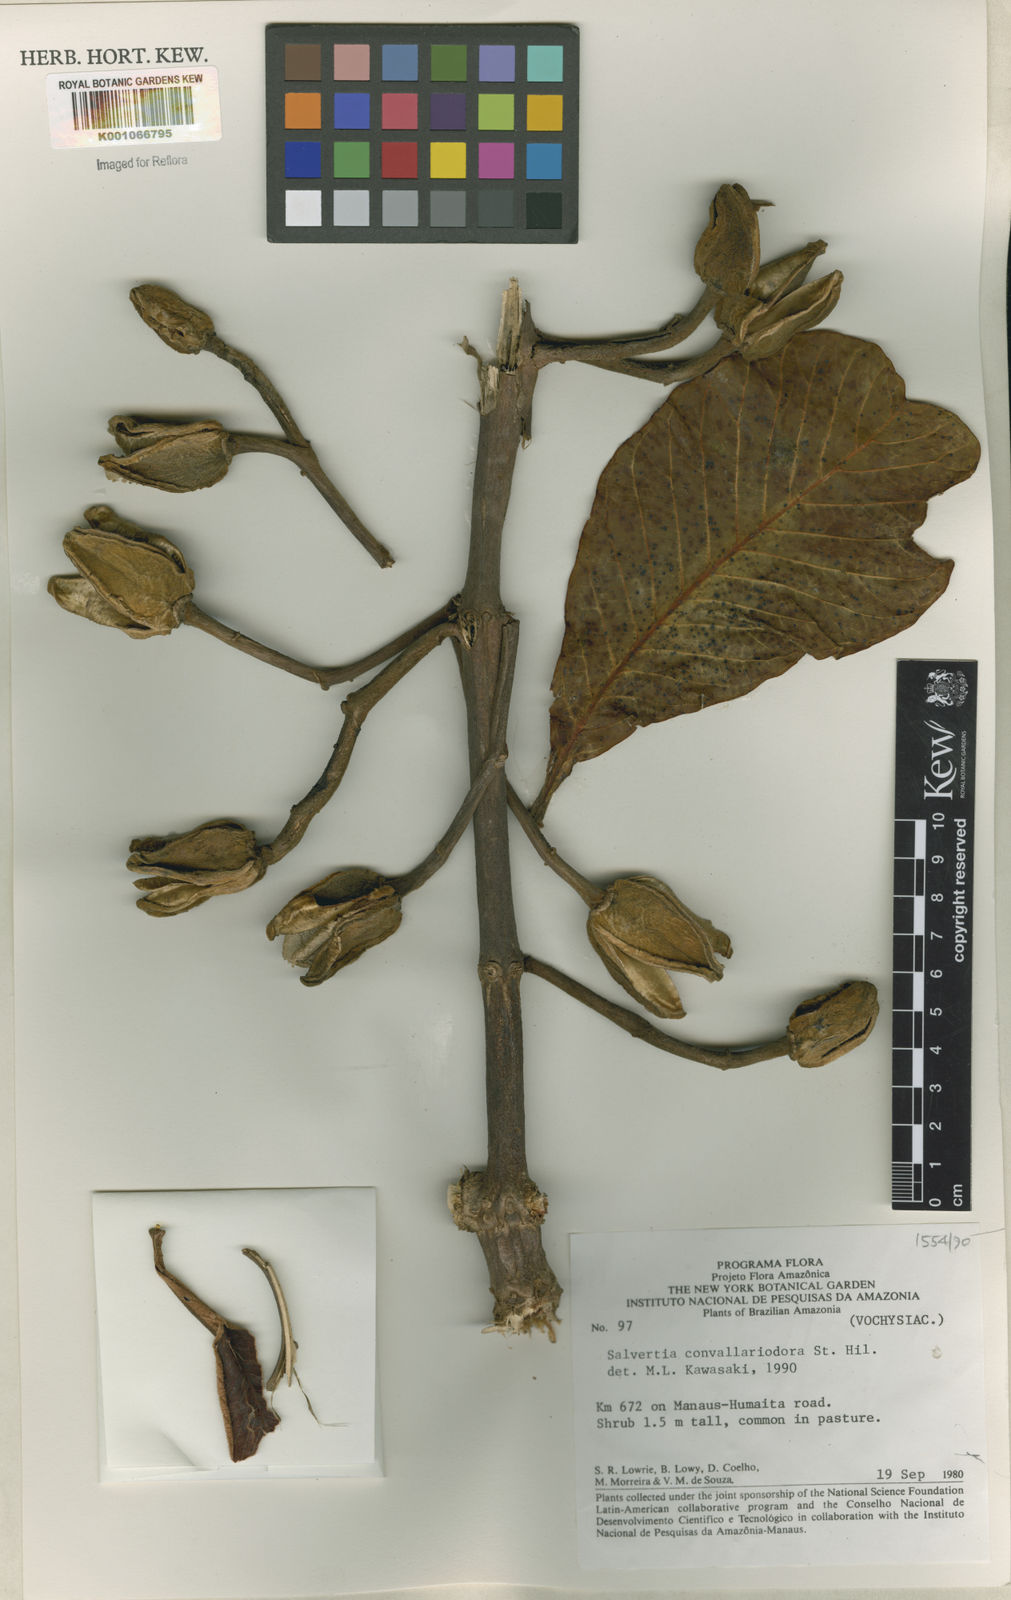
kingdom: Plantae
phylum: Tracheophyta
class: Magnoliopsida
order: Myrtales
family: Vochysiaceae
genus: Salvertia
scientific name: Salvertia convallariodora
